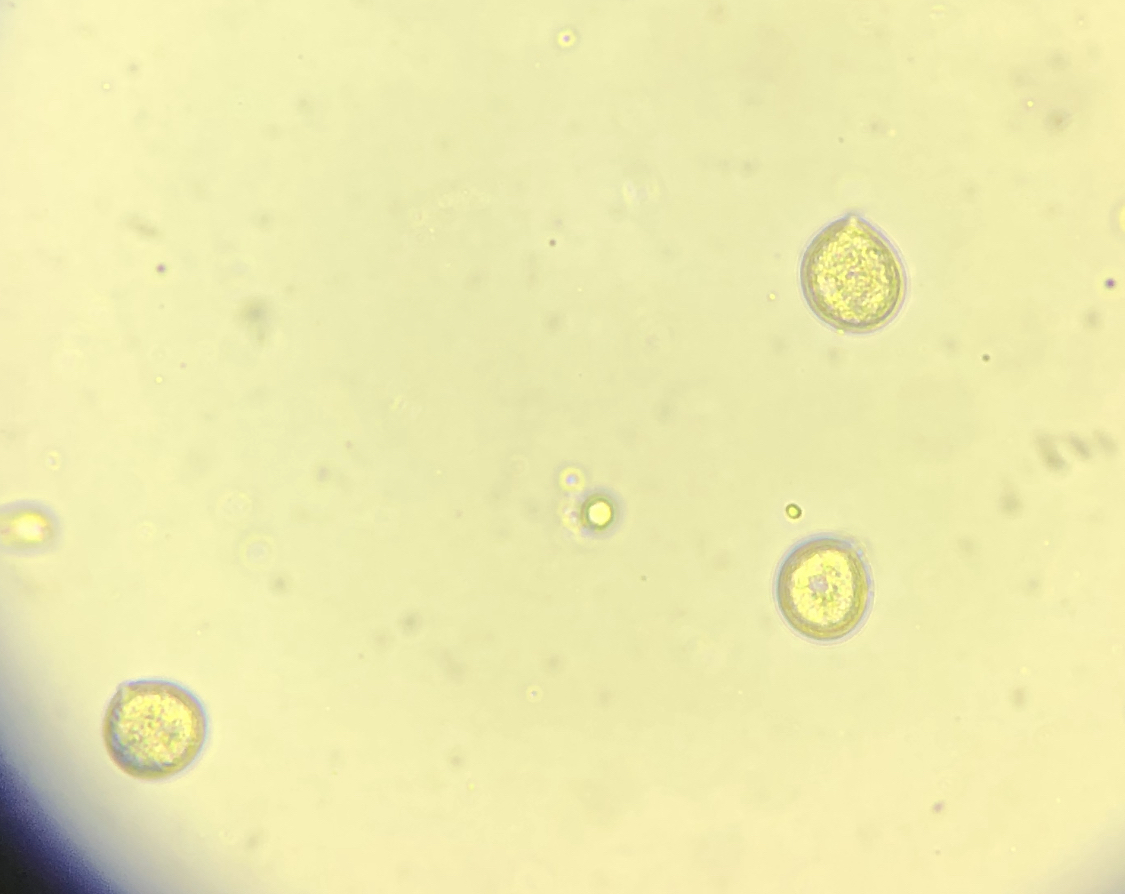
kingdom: Fungi
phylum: Basidiomycota
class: Agaricomycetes
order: Agaricales
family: Clavariaceae
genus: Clavaria
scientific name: Clavaria
